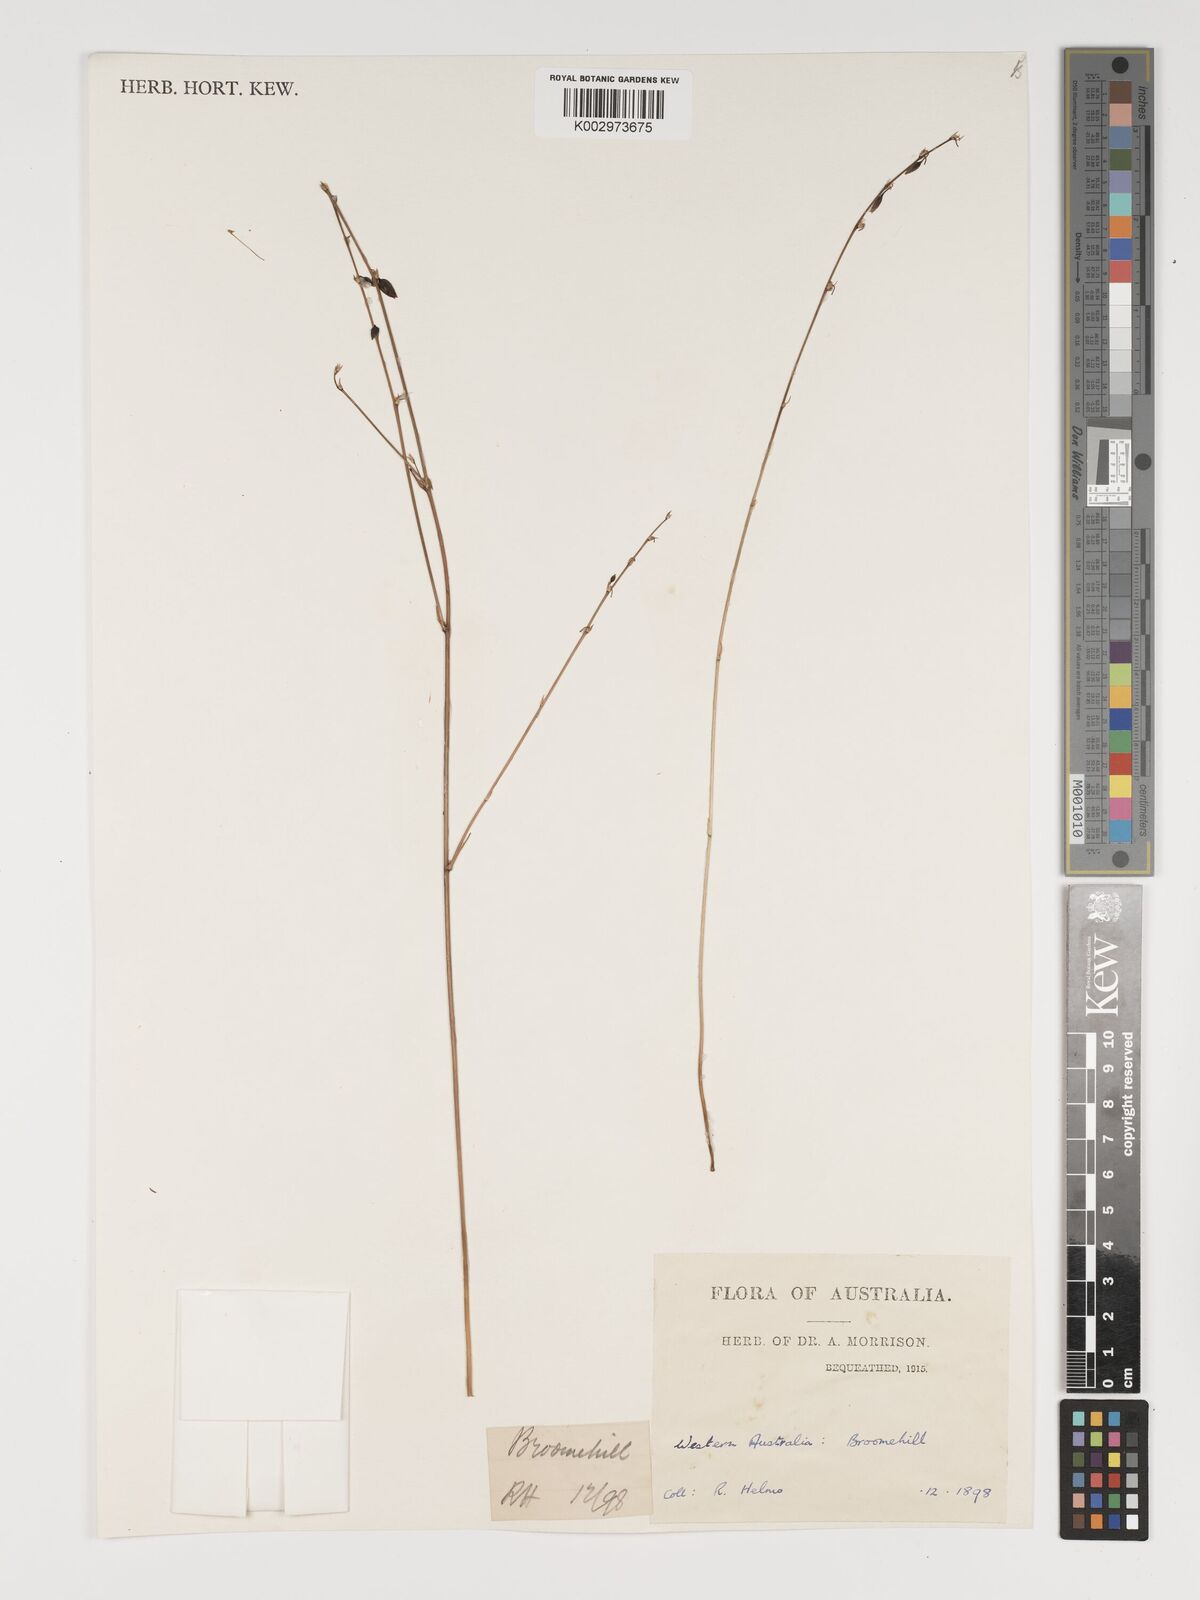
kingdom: Plantae
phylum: Tracheophyta
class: Liliopsida
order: Asparagales
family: Asparagaceae
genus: Dichopogon
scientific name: Dichopogon capillipes
